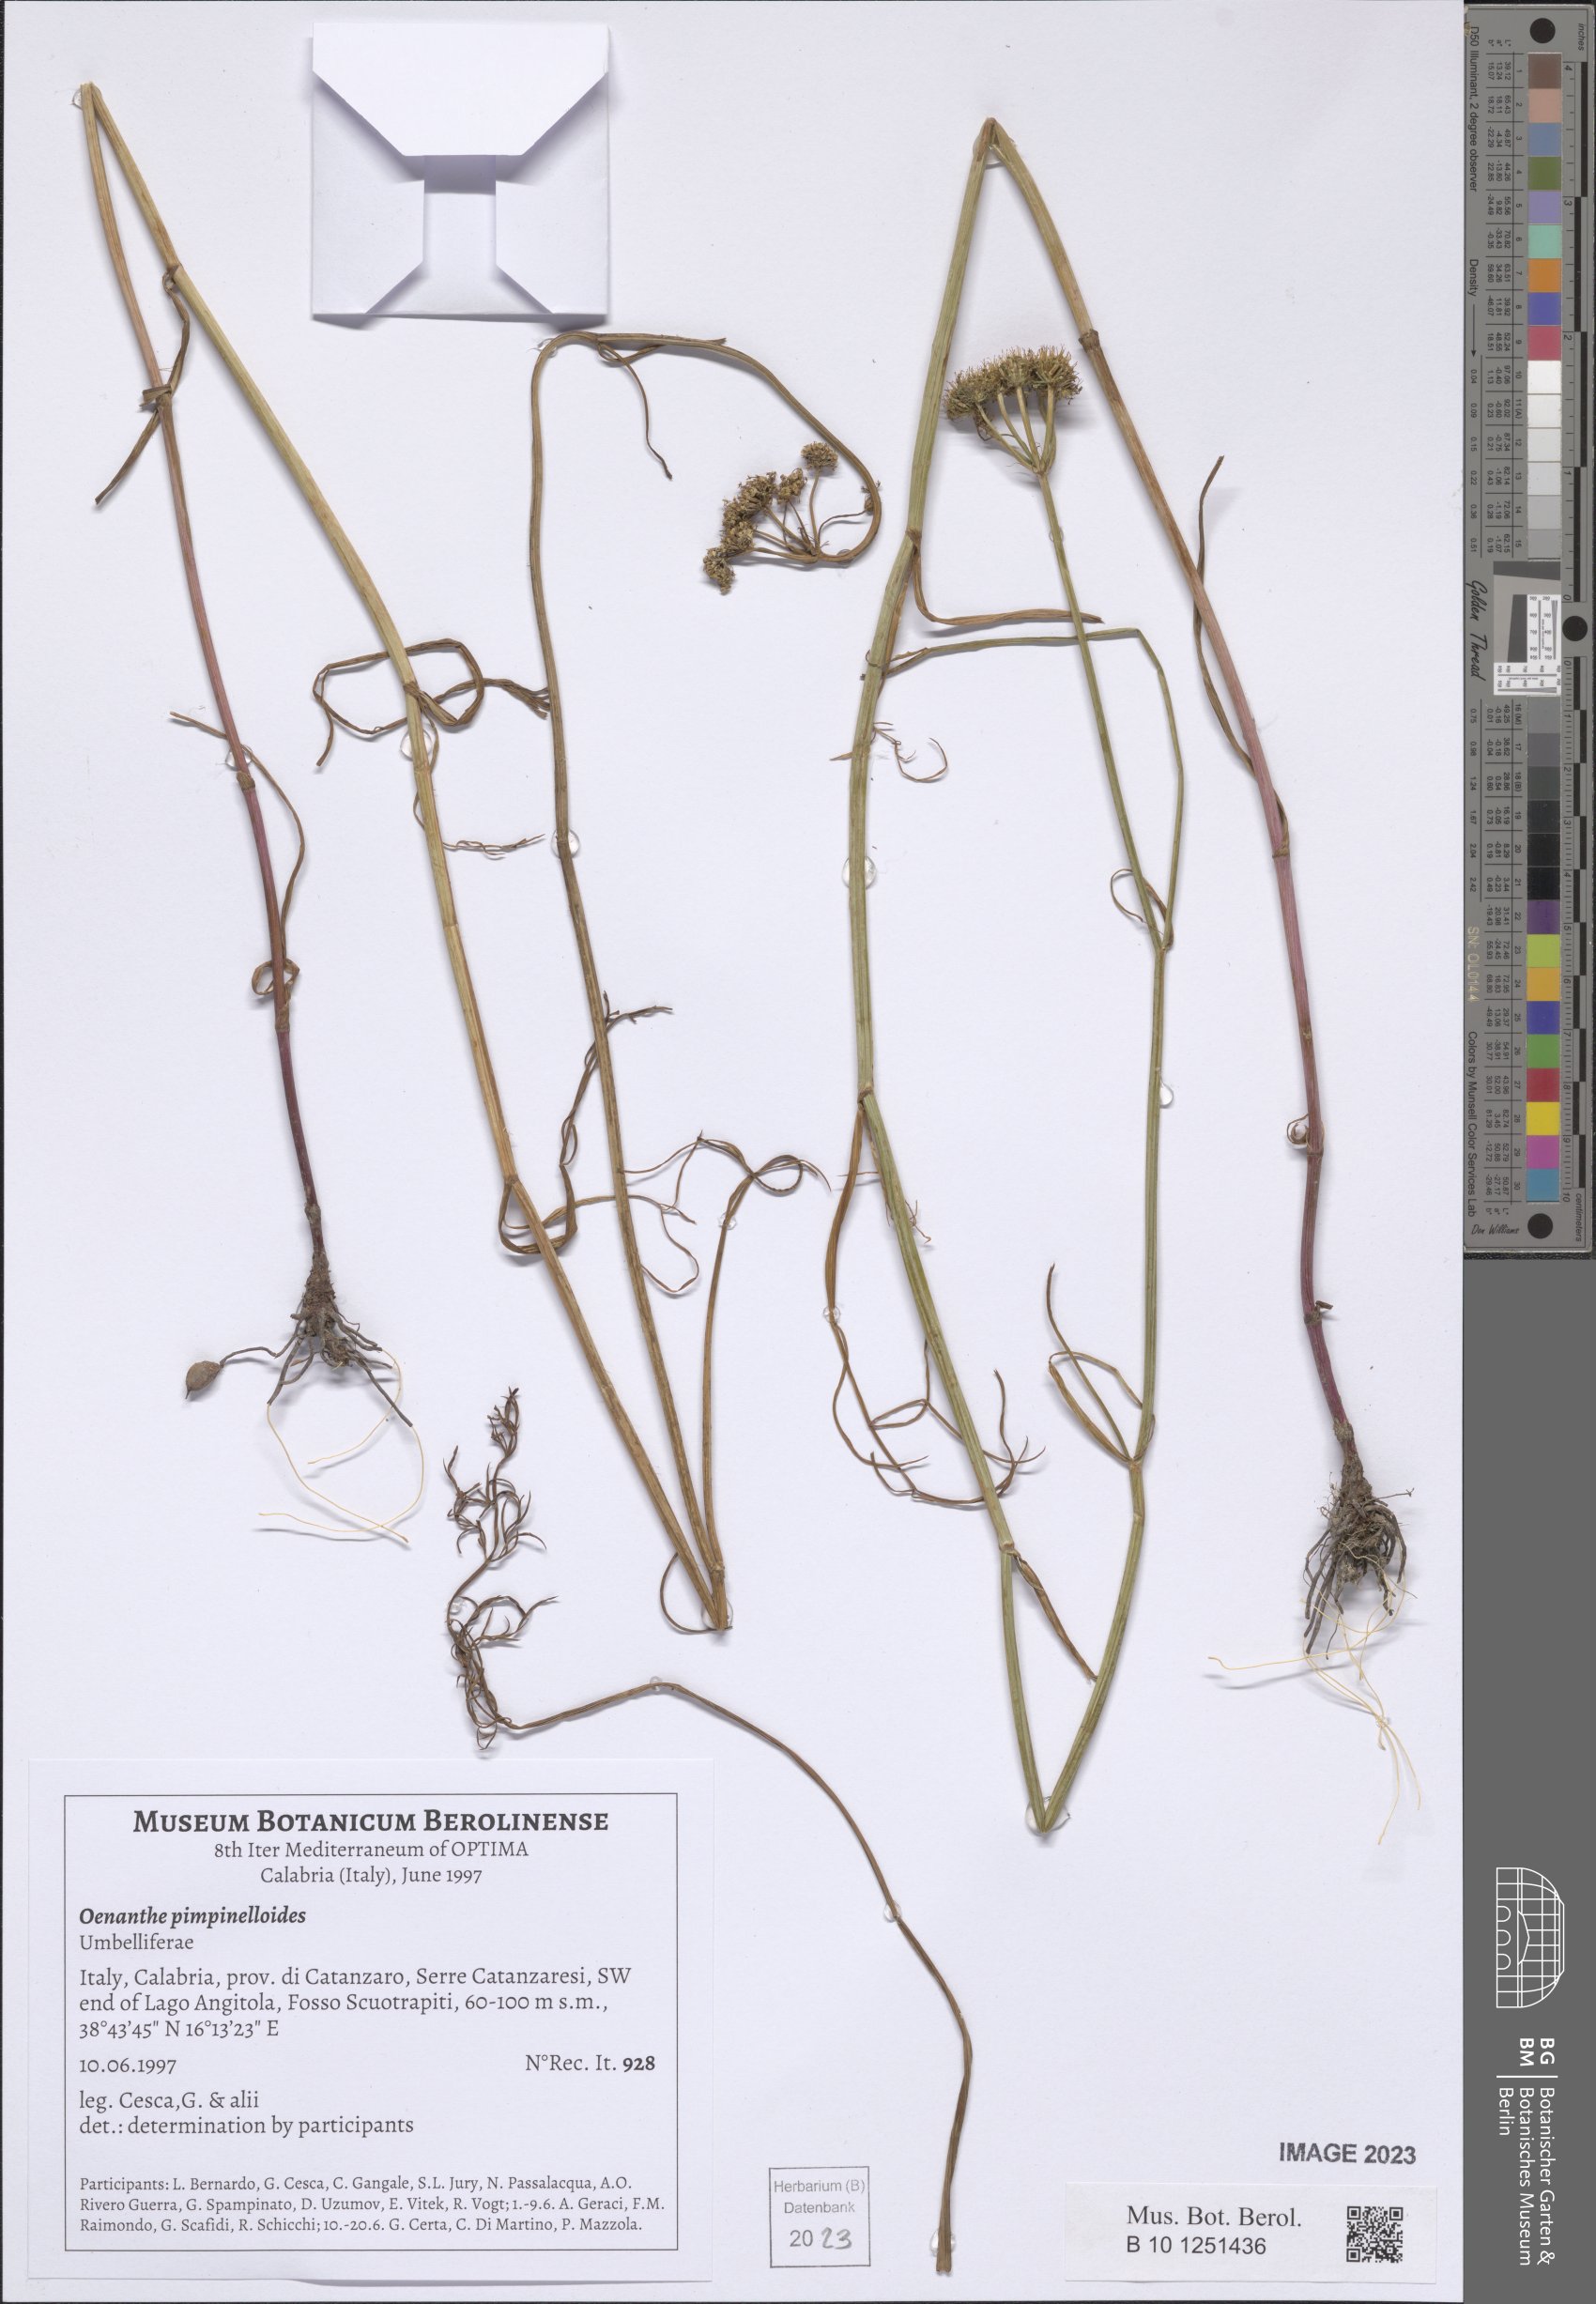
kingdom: Plantae
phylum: Tracheophyta
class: Magnoliopsida
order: Apiales
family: Apiaceae
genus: Oenanthe
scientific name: Oenanthe pimpinelloides
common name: Corky-fruited water-dropwort
